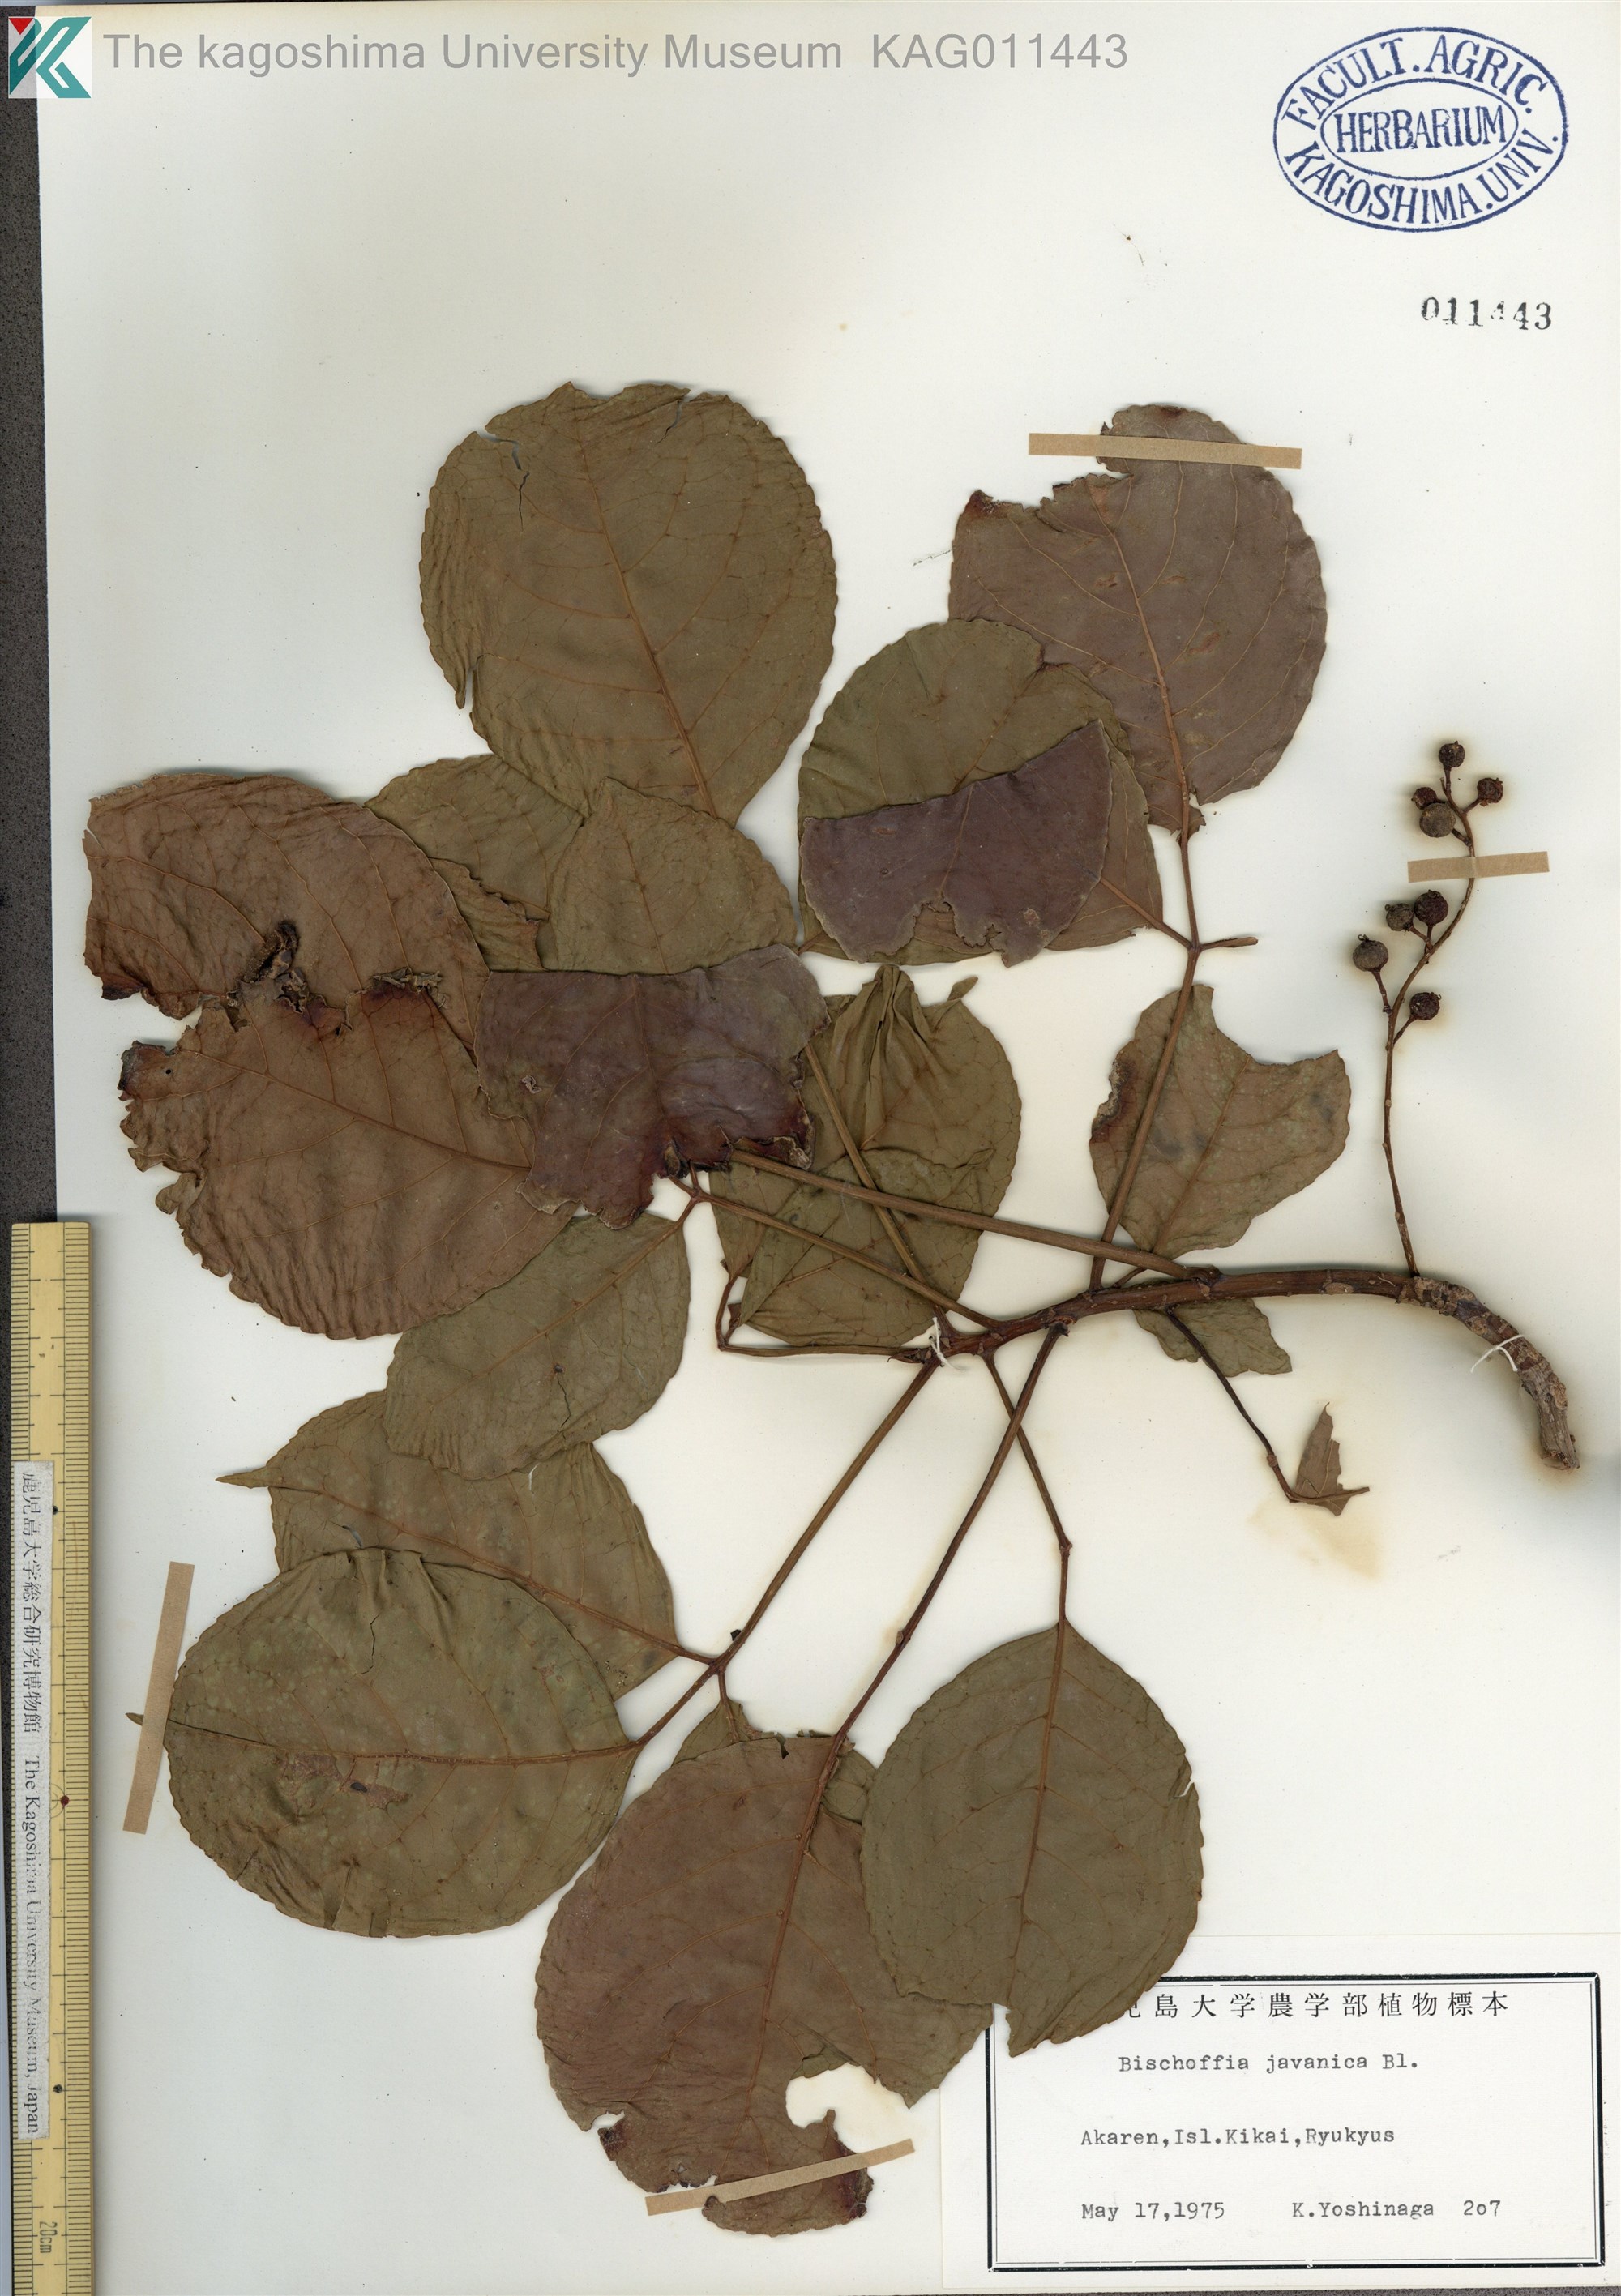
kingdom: Plantae
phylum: Tracheophyta
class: Magnoliopsida
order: Malpighiales
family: Phyllanthaceae
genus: Bischofia
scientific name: Bischofia javanica
